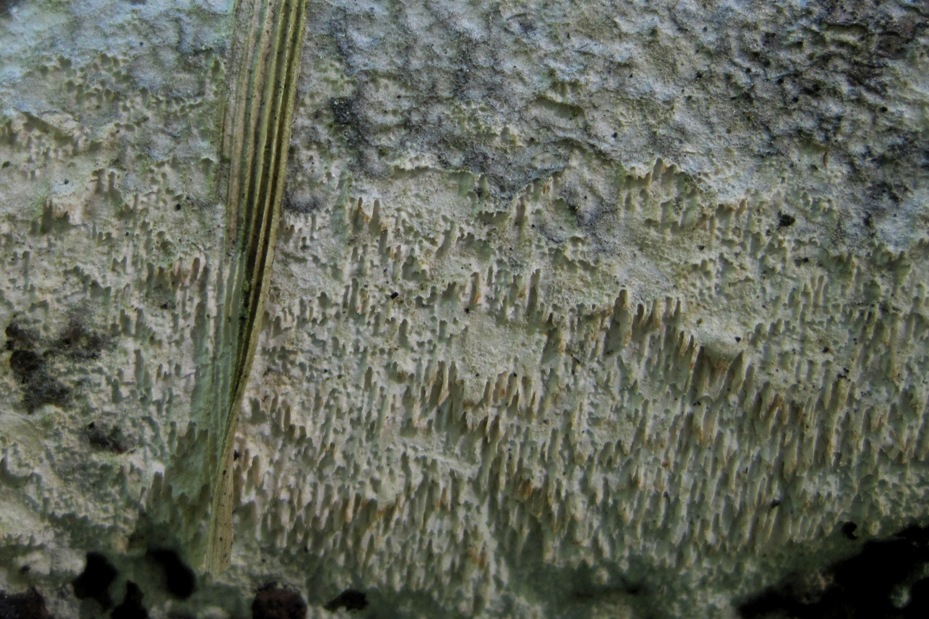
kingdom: Fungi
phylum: Basidiomycota
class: Agaricomycetes
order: Hymenochaetales
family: Schizoporaceae
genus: Schizopora
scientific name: Schizopora paradoxa
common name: hvid tandsvamp
